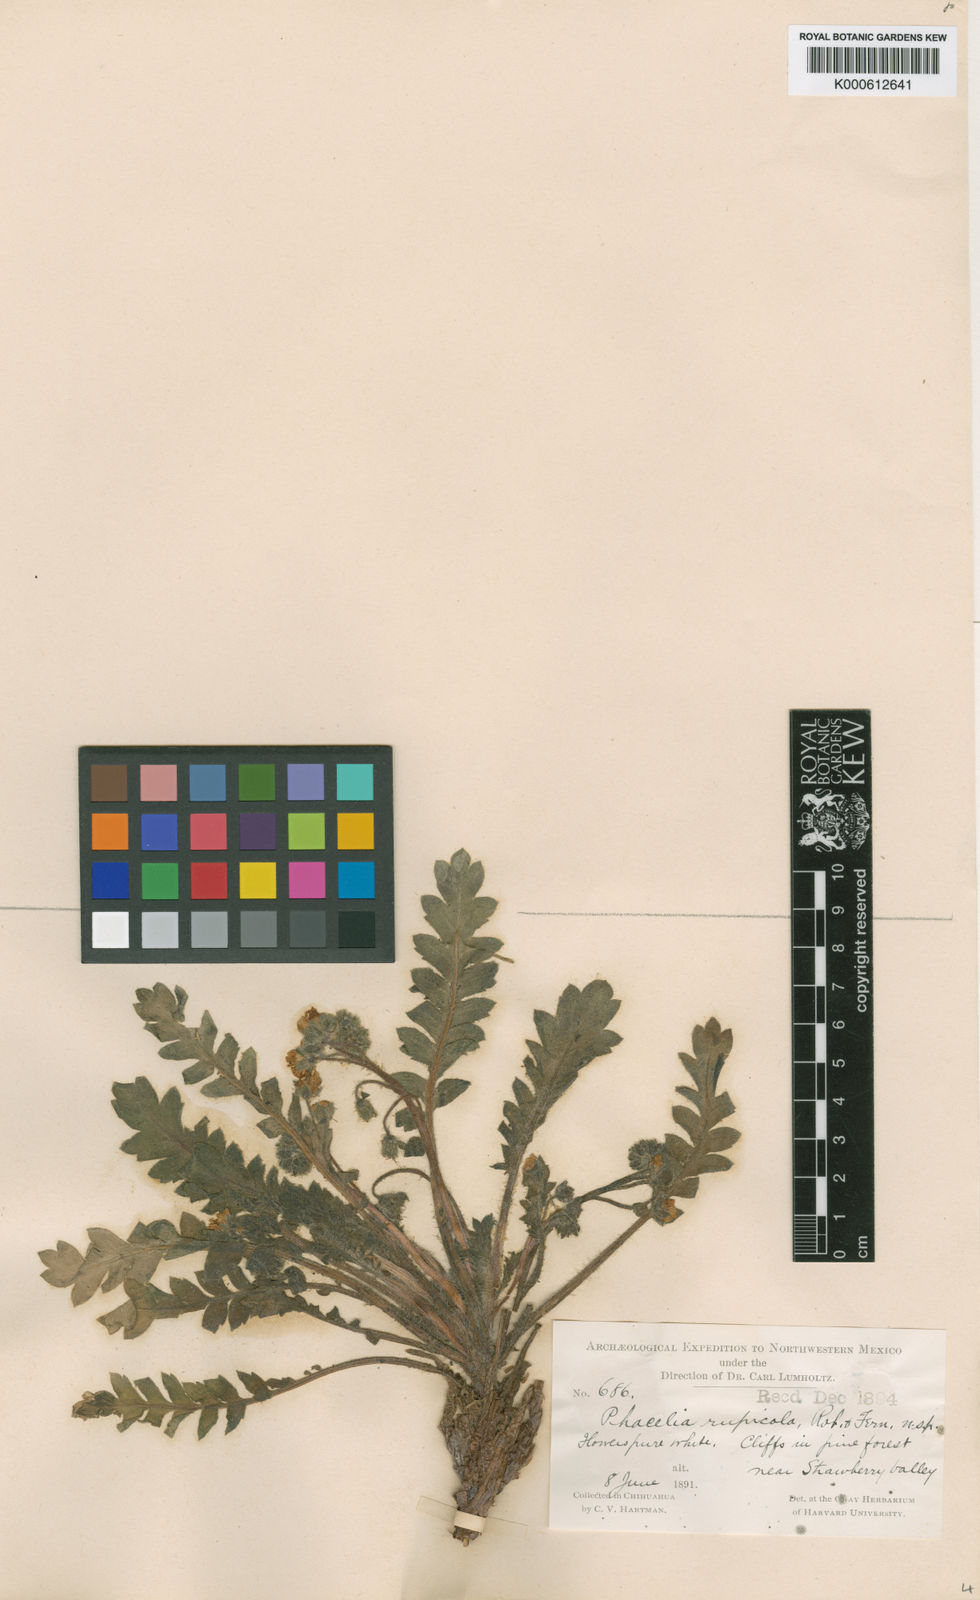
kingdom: Plantae
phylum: Tracheophyta
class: Magnoliopsida
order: Boraginales
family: Hydrophyllaceae
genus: Phacelia
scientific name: Phacelia platycarpa
